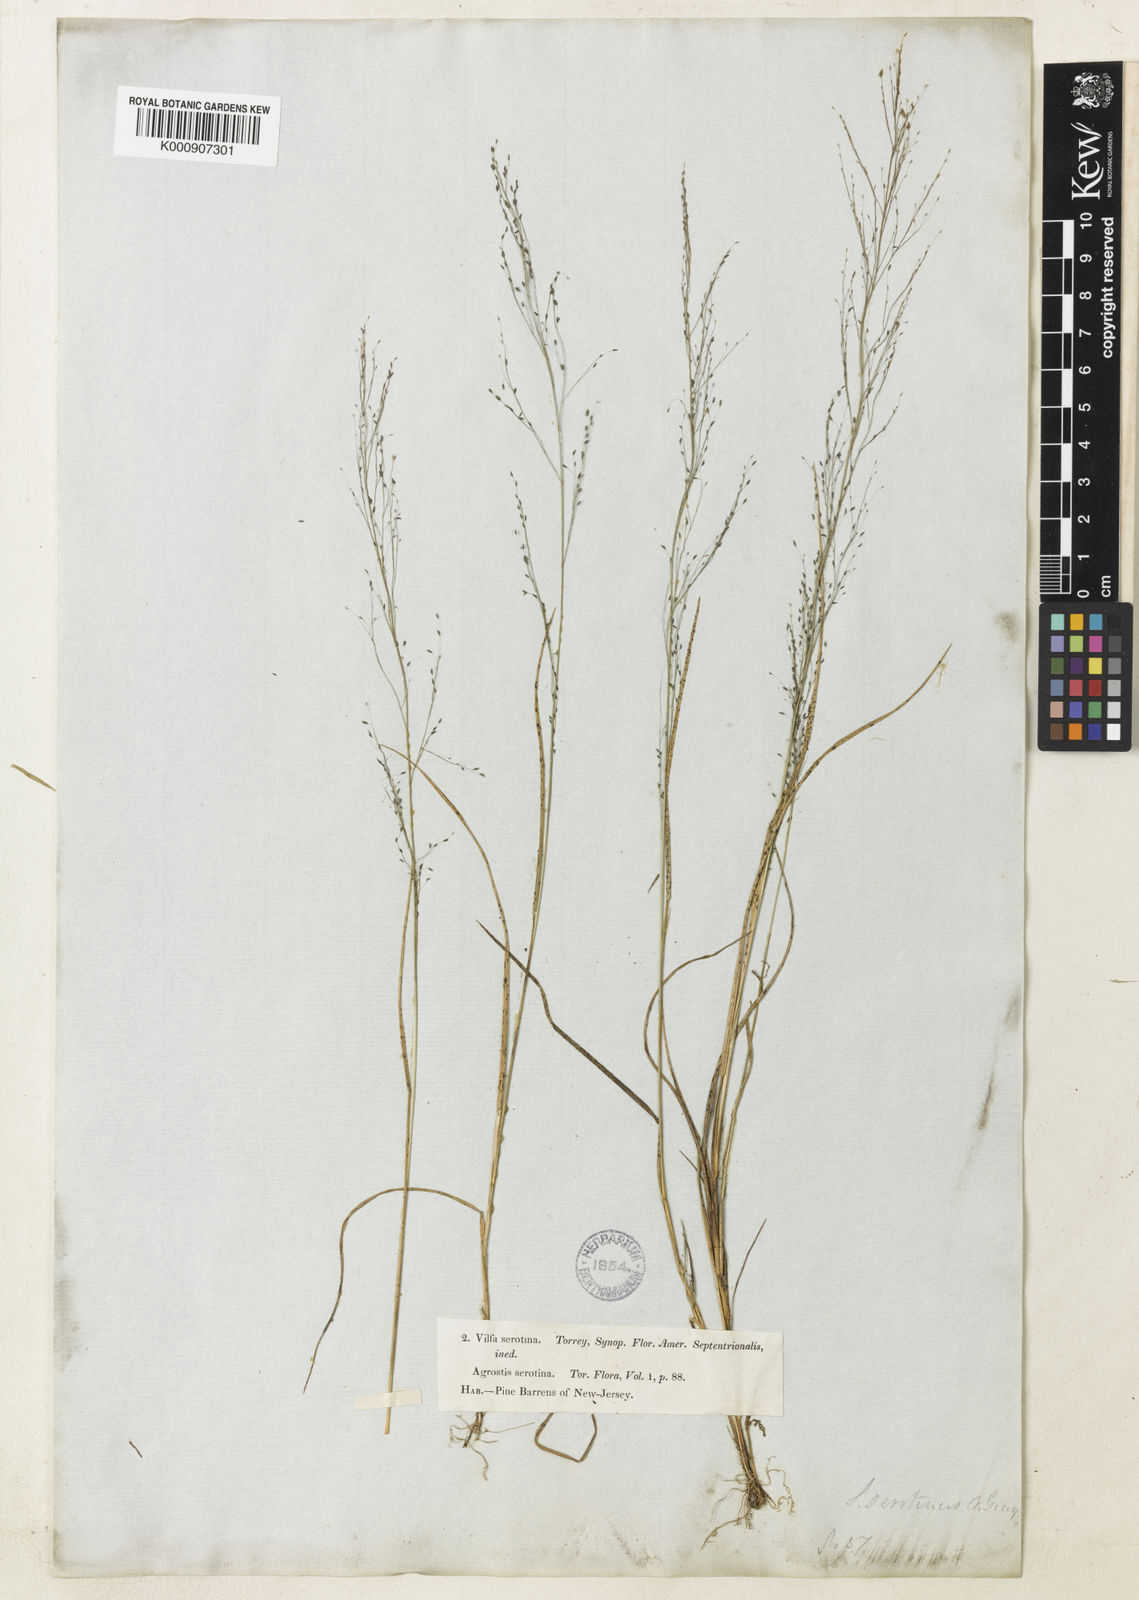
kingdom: Plantae
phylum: Tracheophyta
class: Liliopsida
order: Poales
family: Poaceae
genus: Muhlenbergia
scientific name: Muhlenbergia uniflora
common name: Bog muhly
